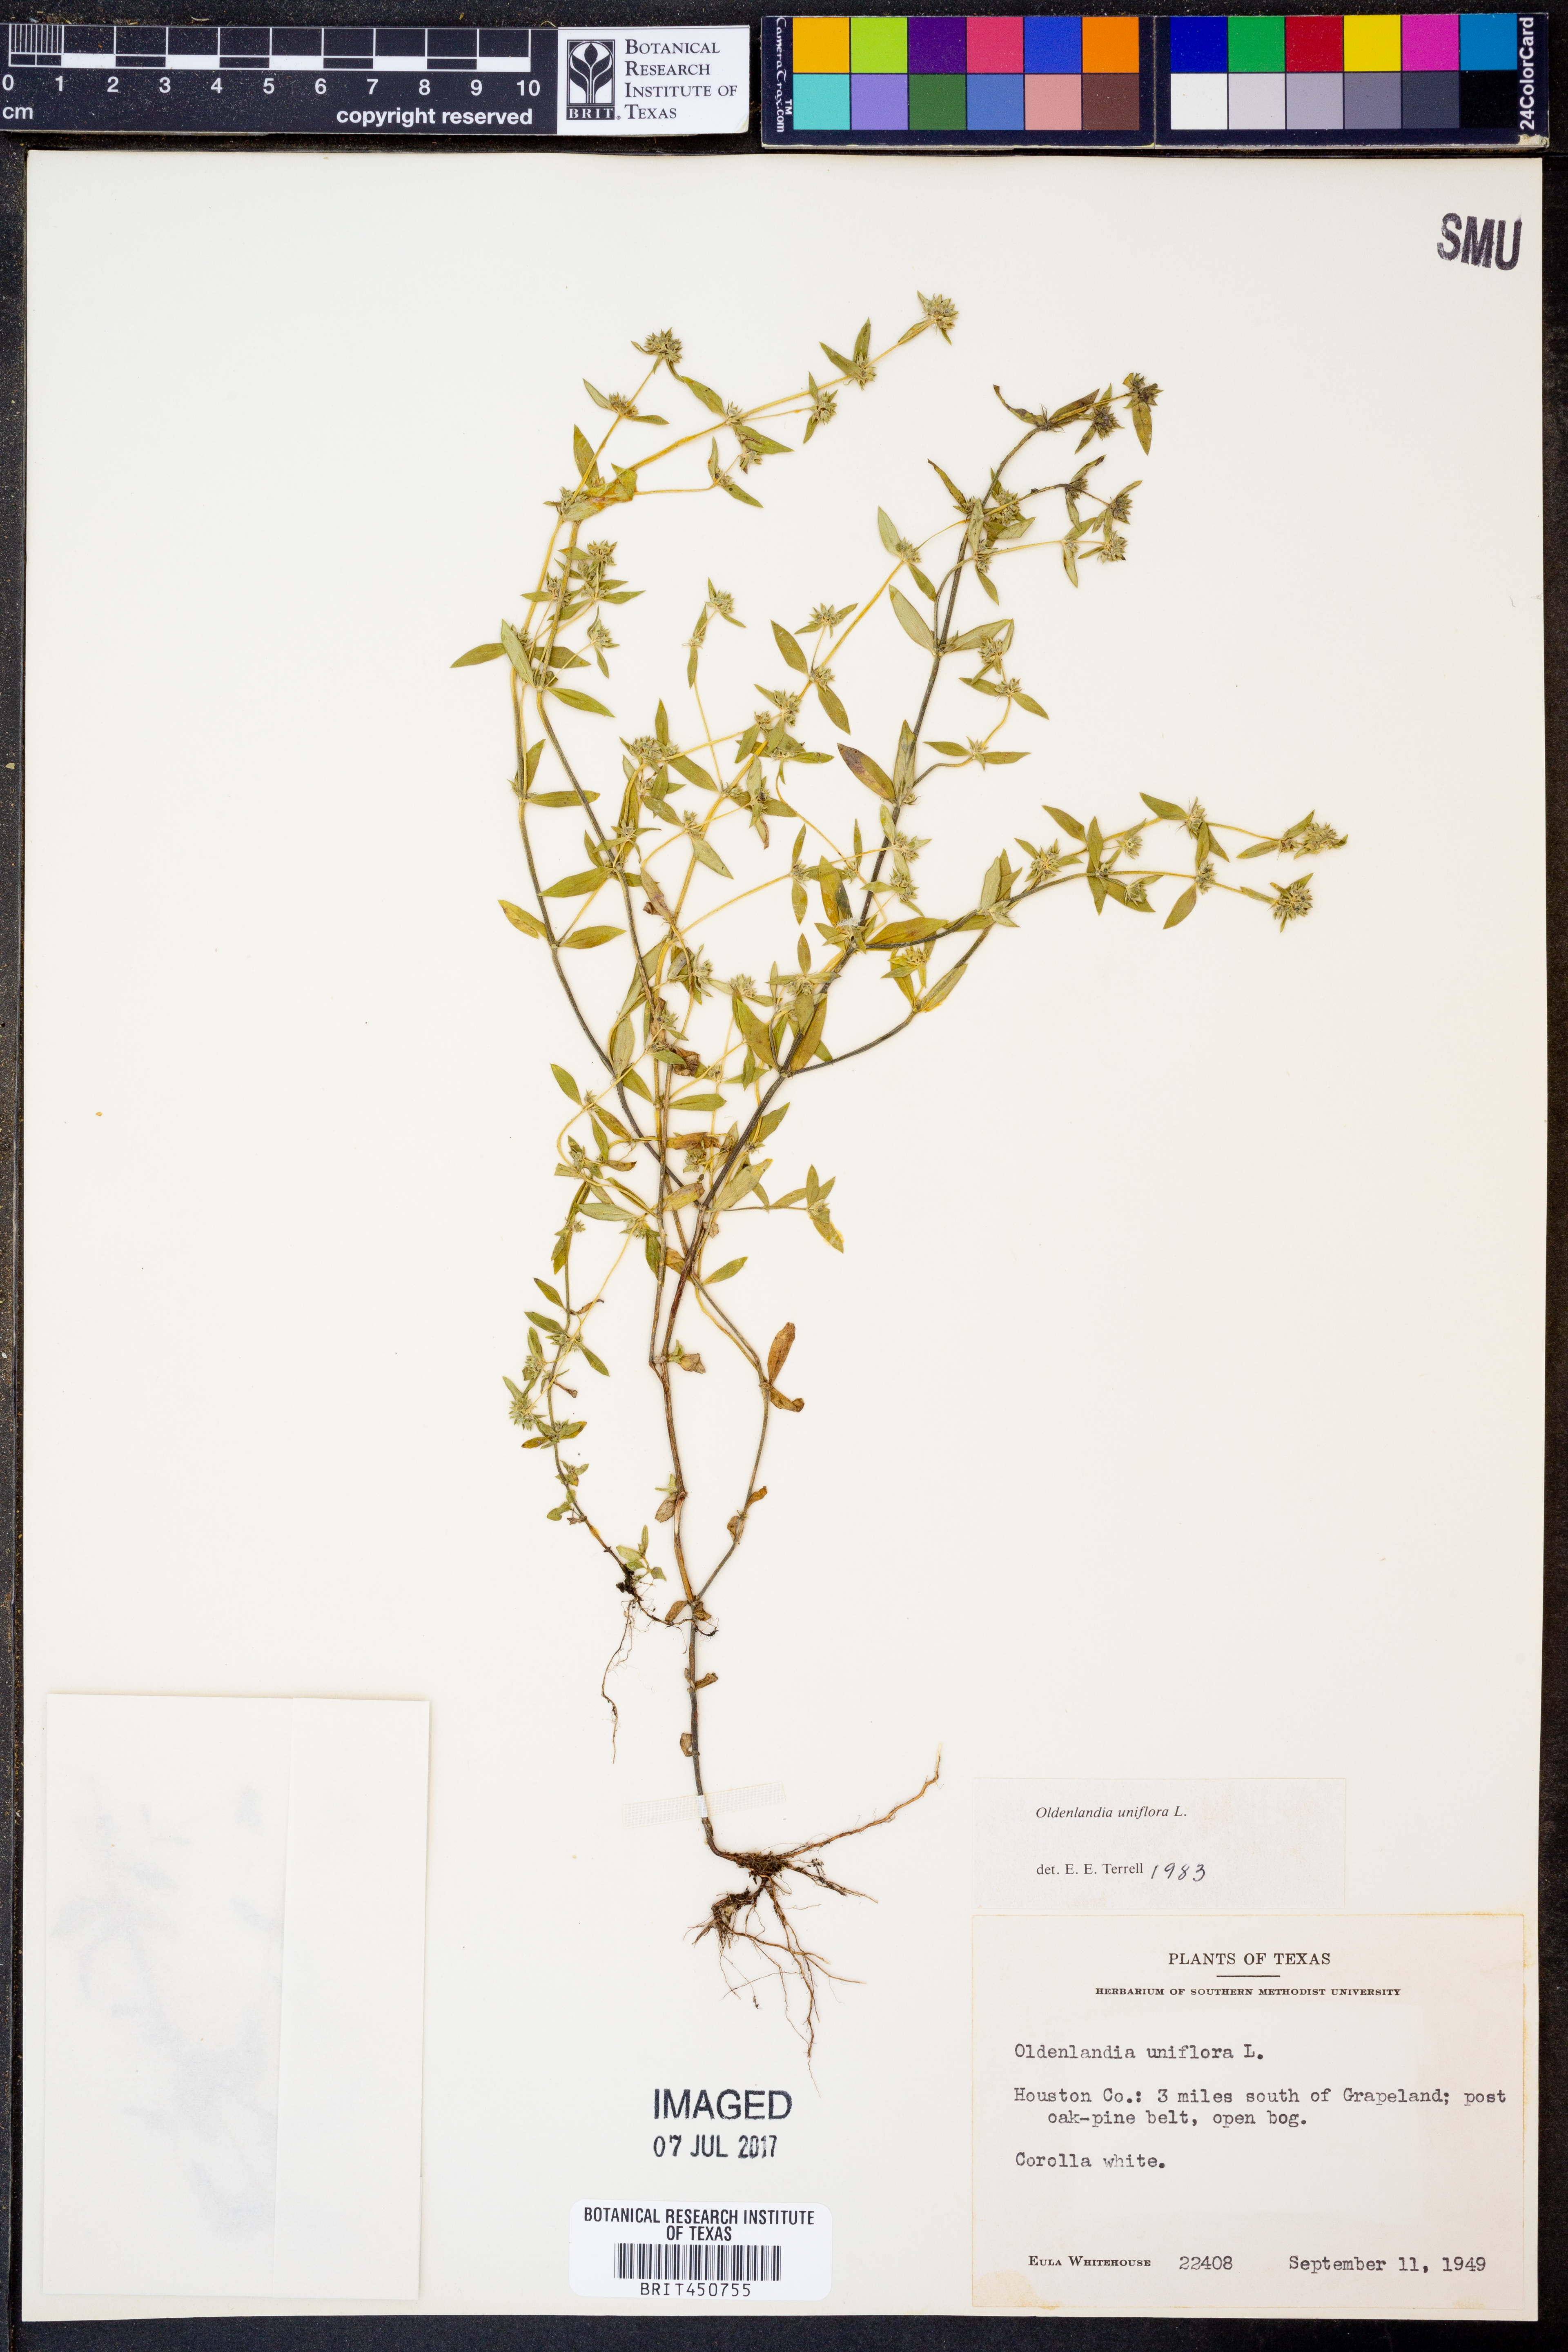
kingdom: Plantae
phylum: Tracheophyta
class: Magnoliopsida
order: Gentianales
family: Rubiaceae
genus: Edrastima
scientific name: Edrastima uniflora
